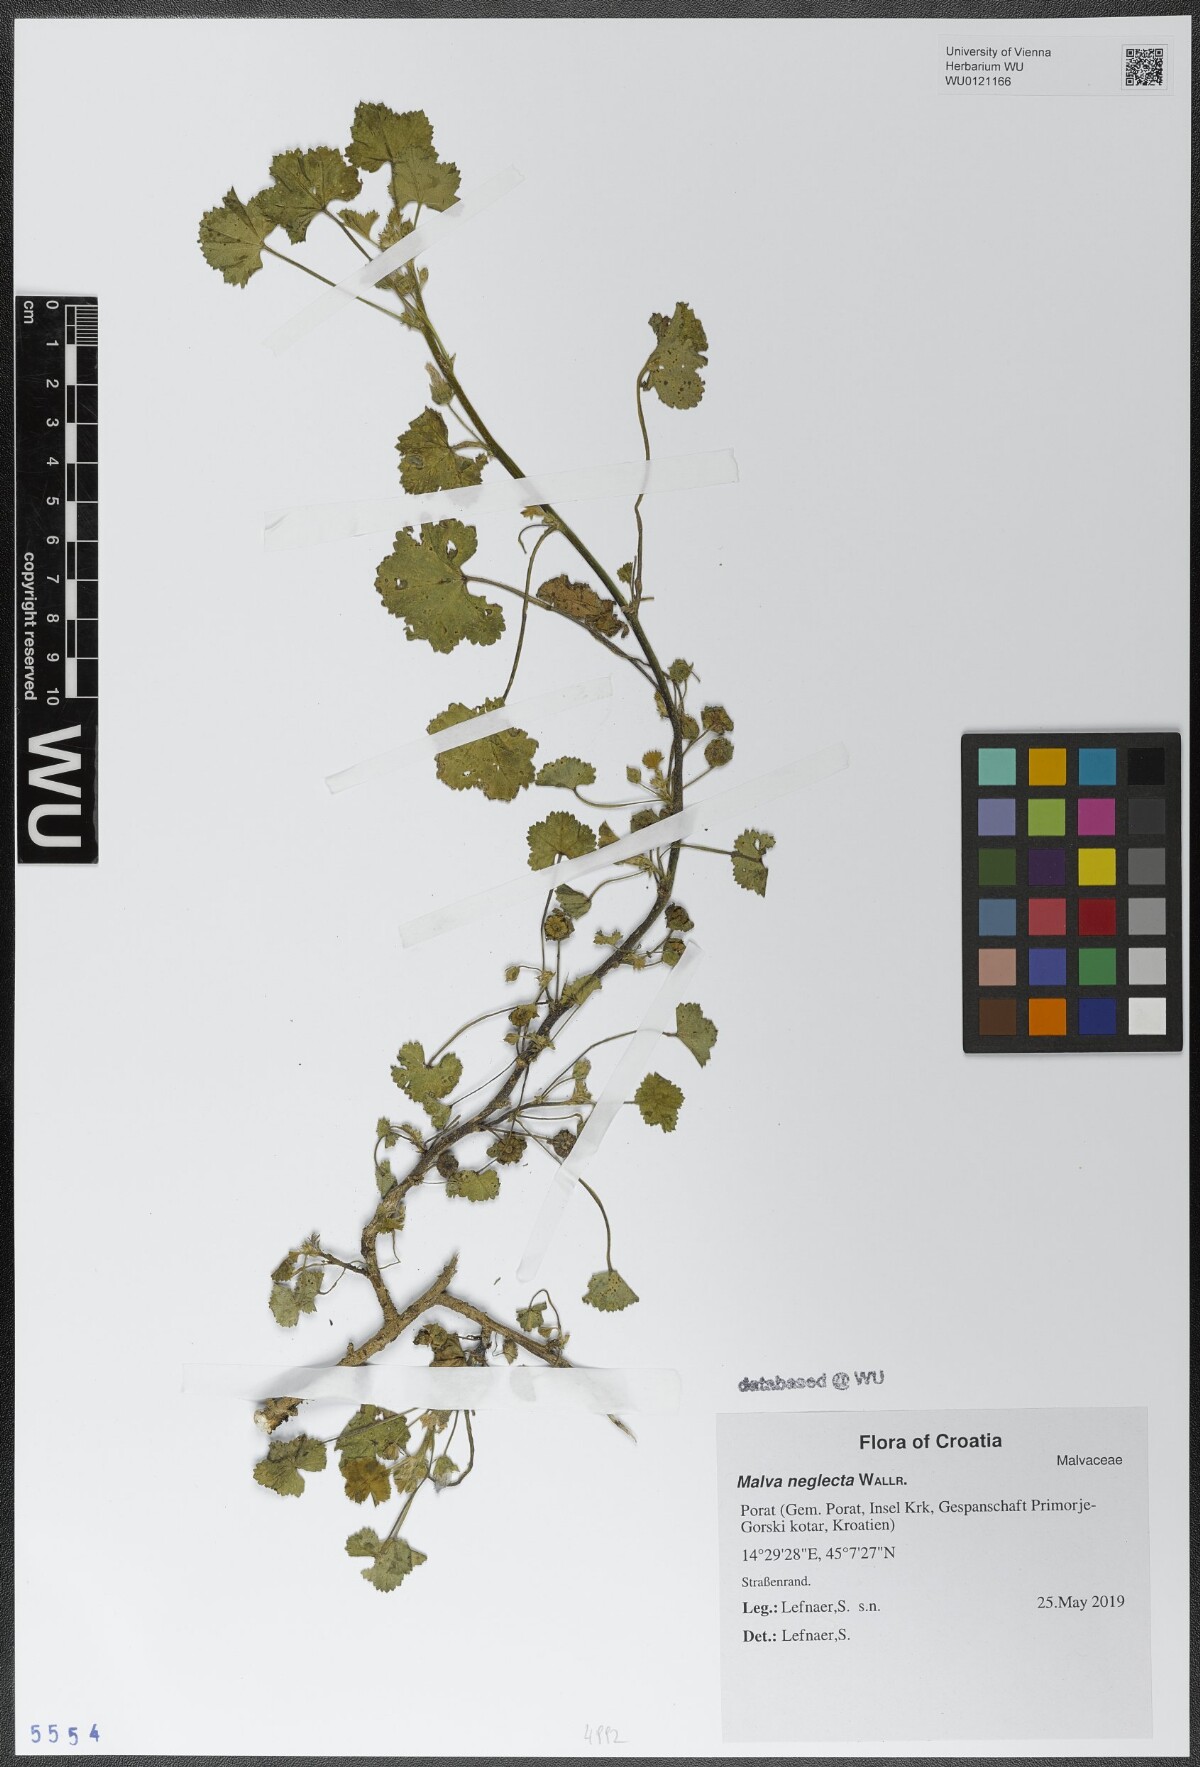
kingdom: Plantae
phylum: Tracheophyta
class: Magnoliopsida
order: Malvales
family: Malvaceae
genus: Malva
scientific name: Malva neglecta
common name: Common mallow
